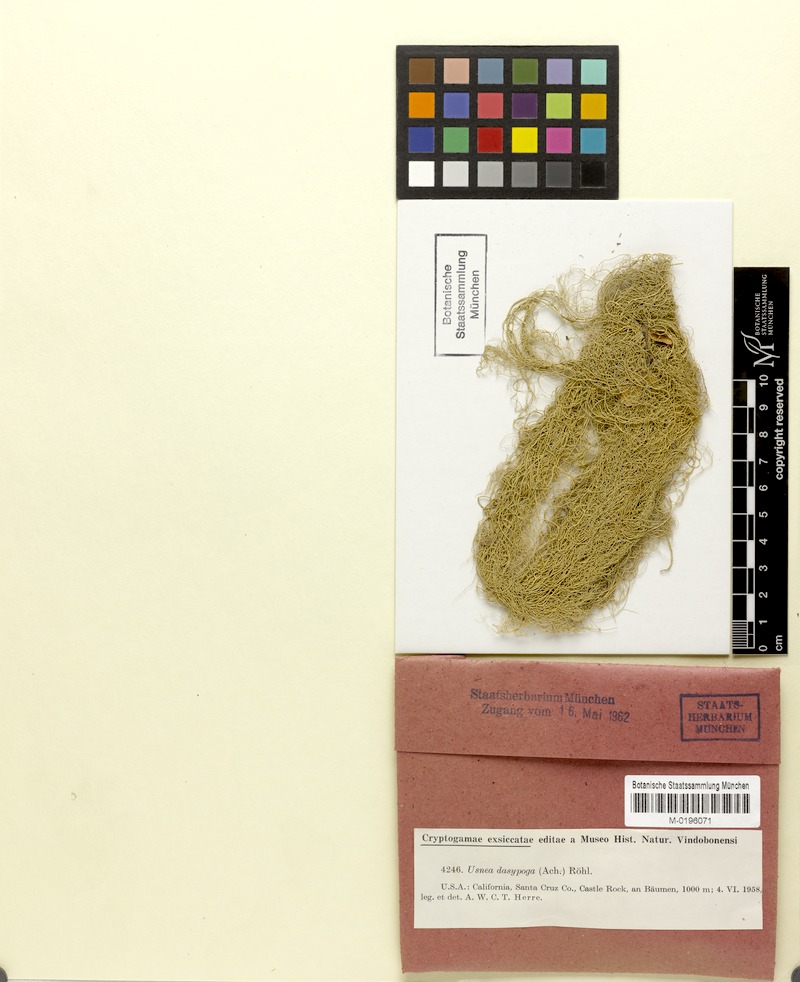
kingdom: Fungi
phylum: Ascomycota
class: Lecanoromycetes
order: Lecanorales
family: Parmeliaceae
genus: Usnea
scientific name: Usnea dasopoga
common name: Fishbone beard lichen
